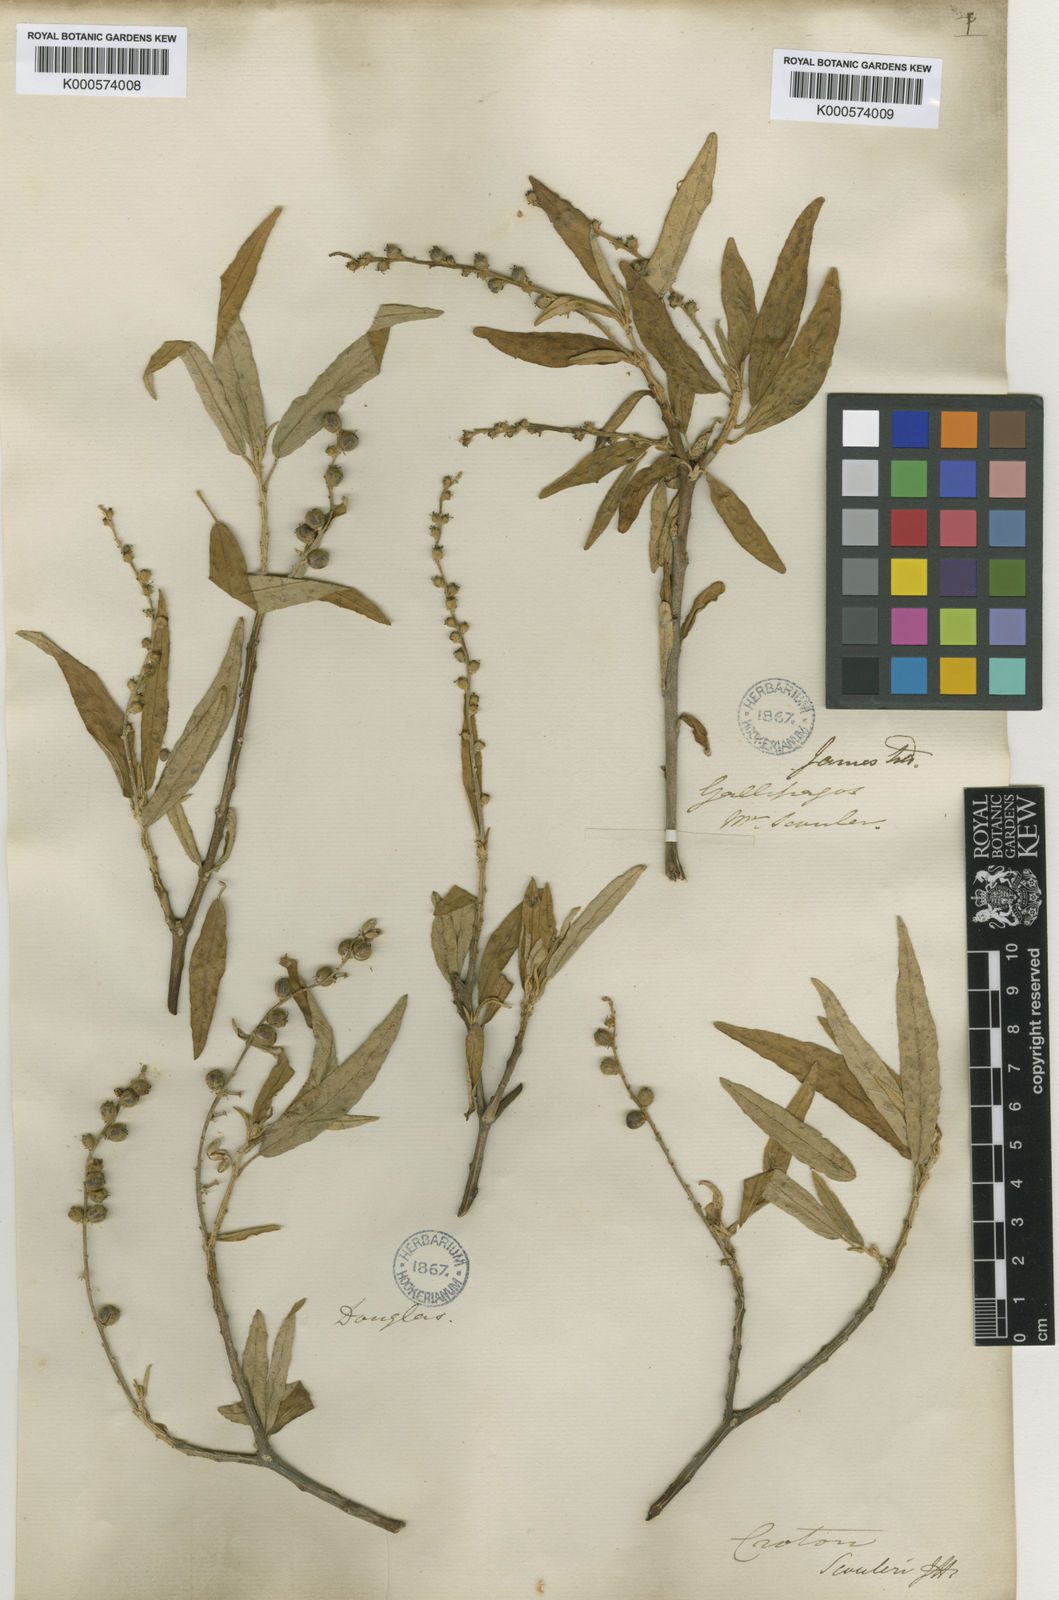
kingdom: Plantae
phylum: Tracheophyta
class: Magnoliopsida
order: Malpighiales
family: Euphorbiaceae
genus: Croton
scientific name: Croton scouleri
